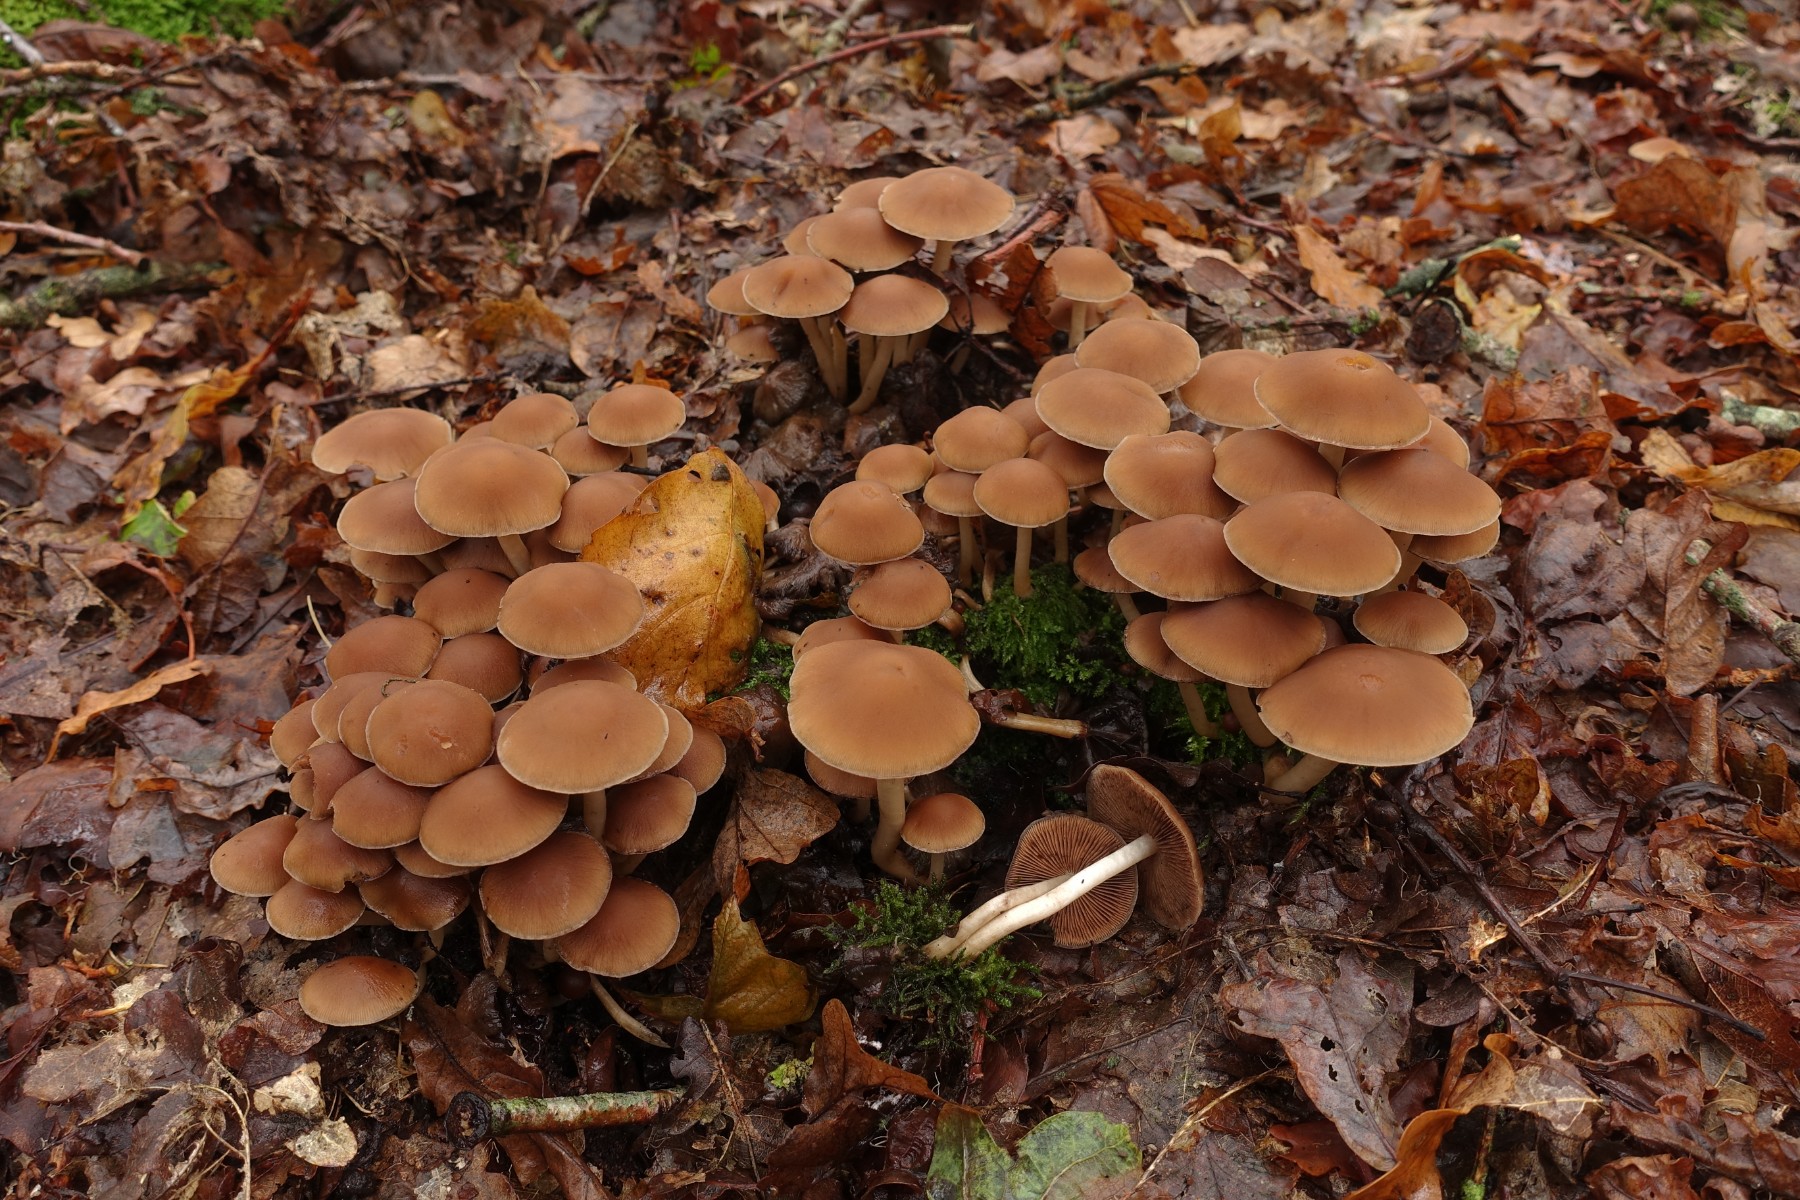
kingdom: Fungi
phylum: Basidiomycota
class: Agaricomycetes
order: Agaricales
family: Psathyrellaceae
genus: Psathyrella
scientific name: Psathyrella piluliformis
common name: lysstokket mørkhat
